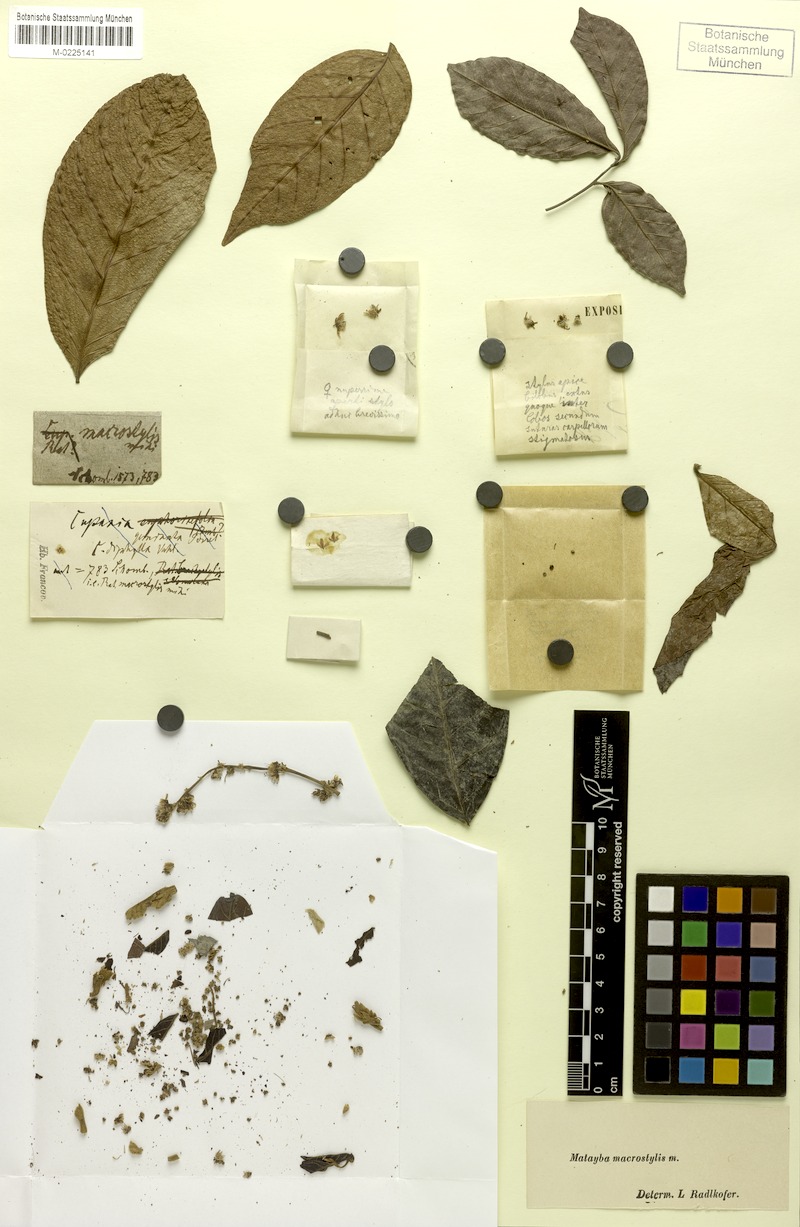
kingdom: Plantae
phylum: Tracheophyta
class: Magnoliopsida
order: Sapindales
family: Sapindaceae
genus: Cupania
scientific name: Cupania macrostylis
